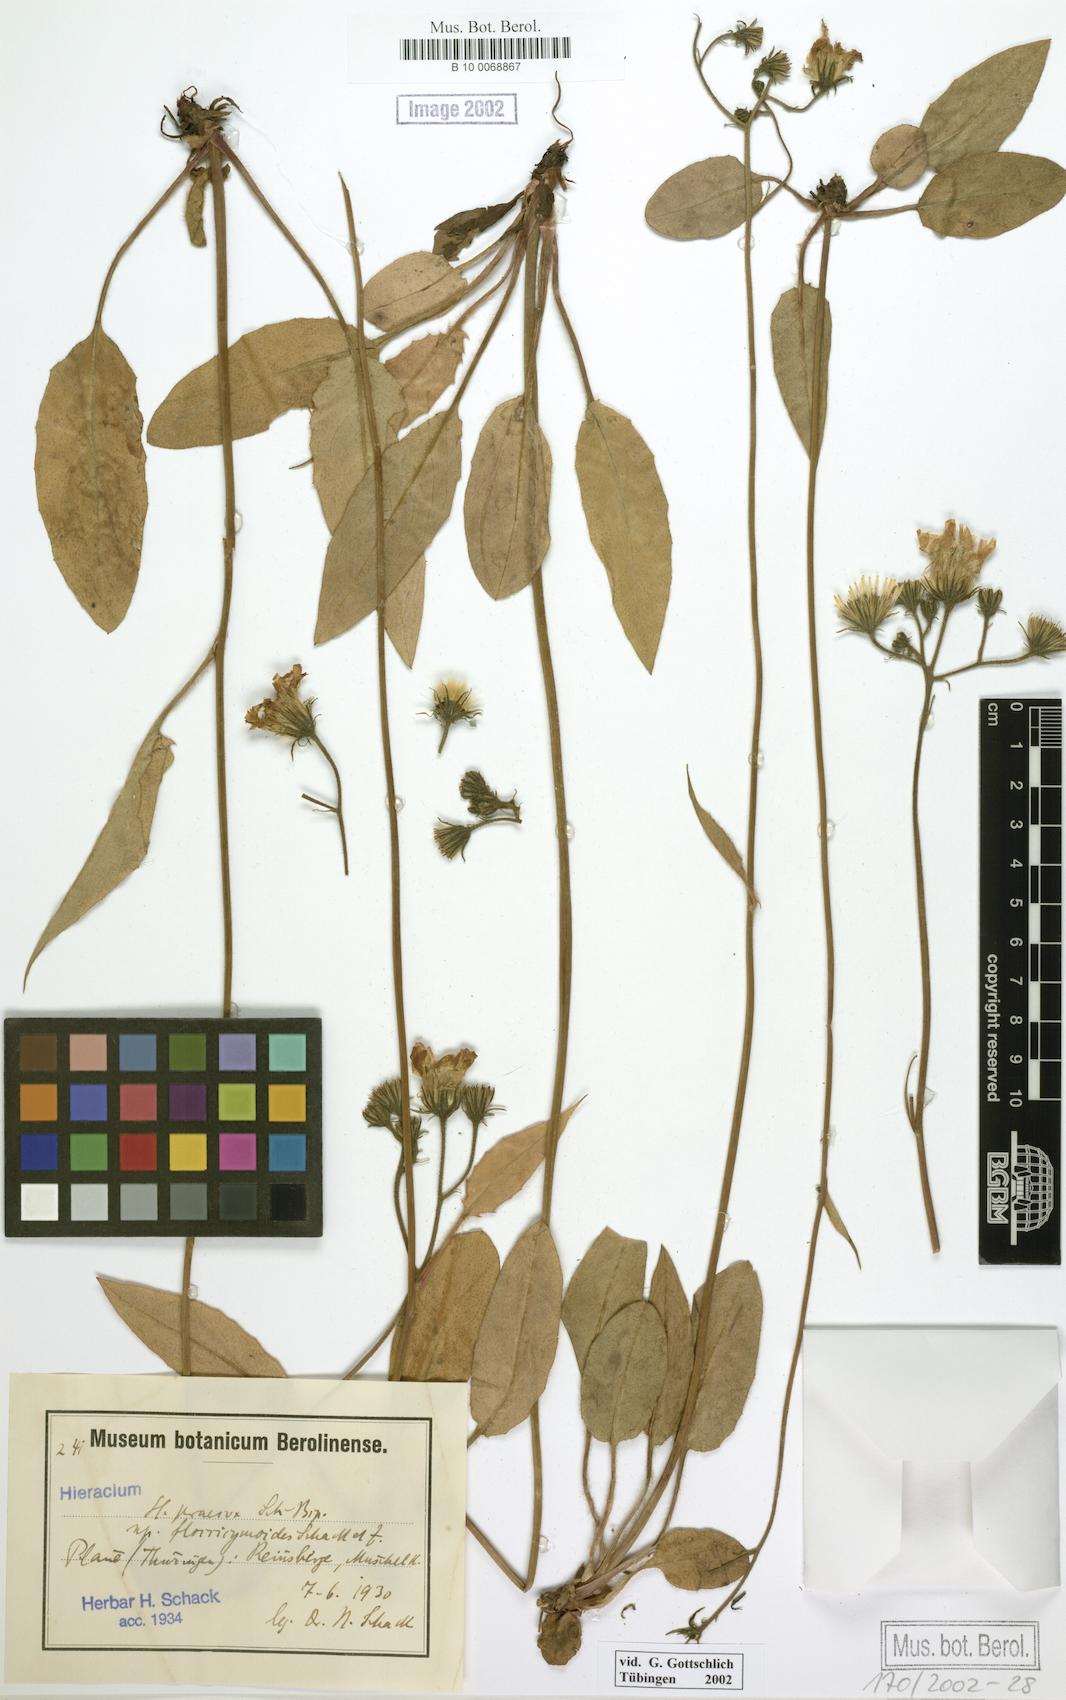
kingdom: Plantae
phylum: Tracheophyta
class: Magnoliopsida
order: Asterales
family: Asteraceae
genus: Hieracium
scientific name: Hieracium glaucinum
